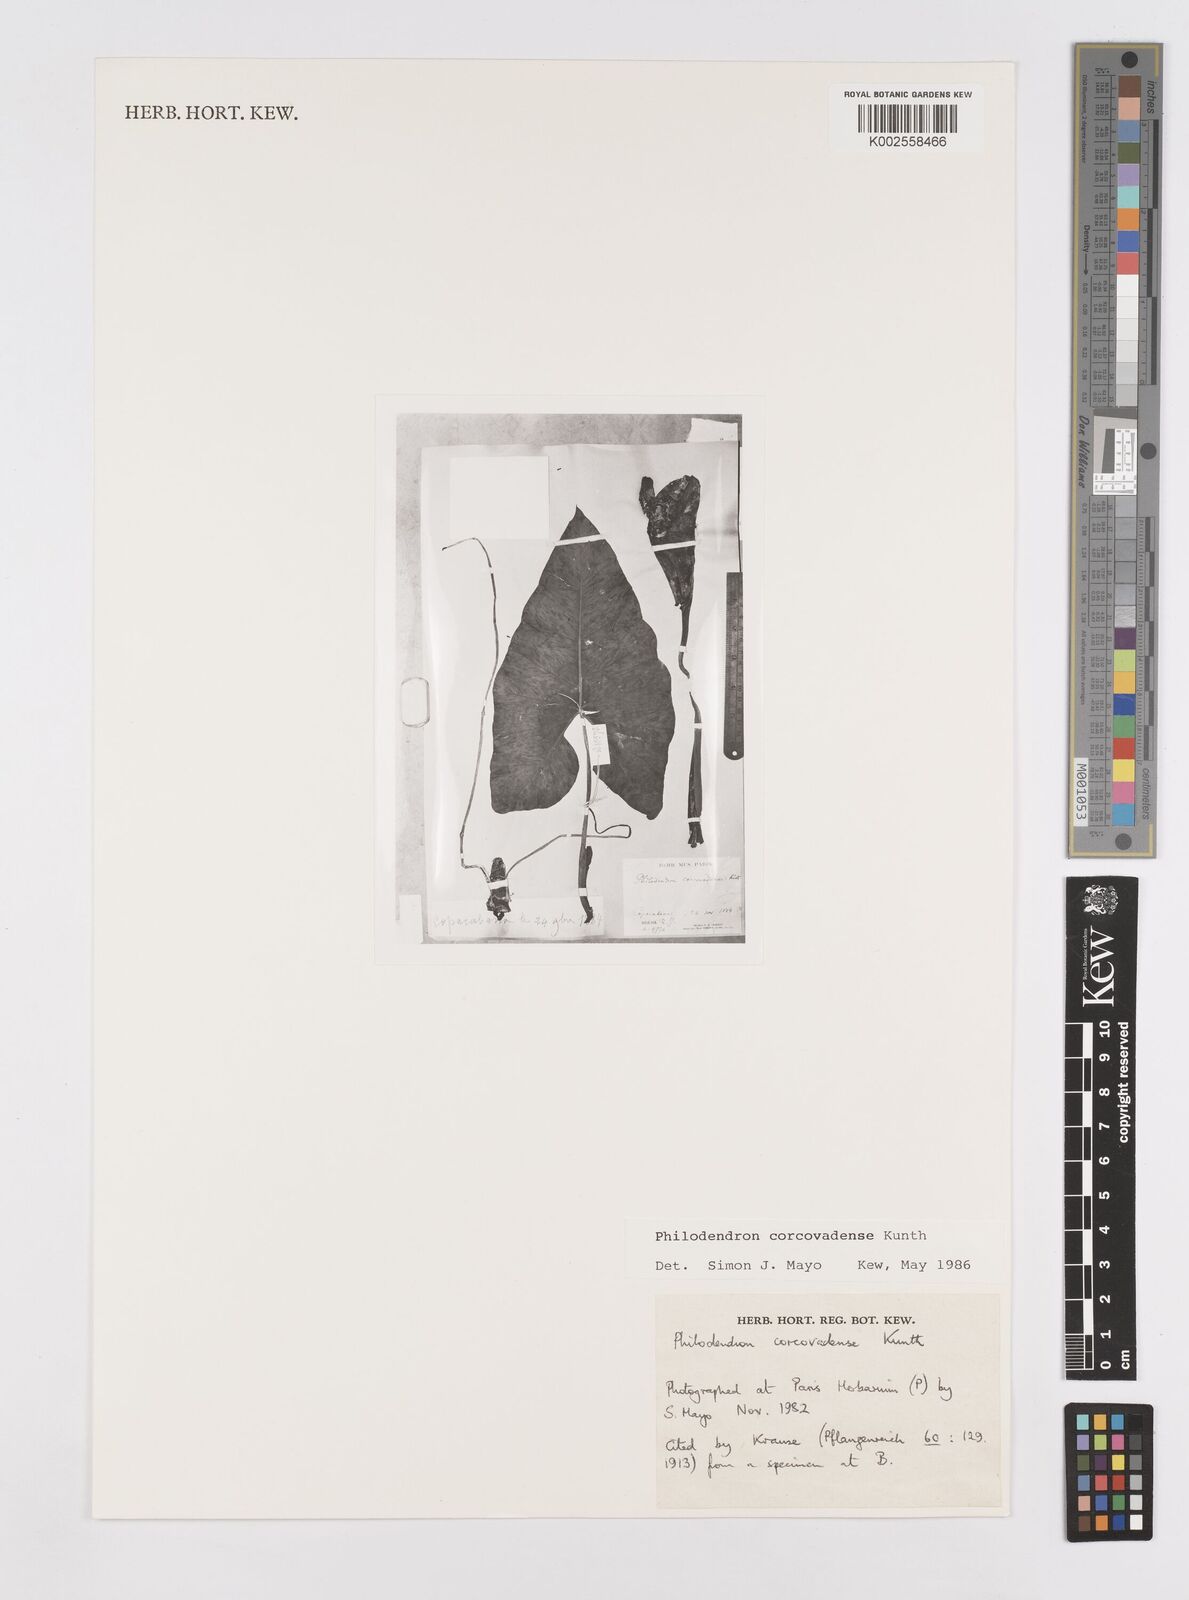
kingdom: Plantae
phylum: Tracheophyta
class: Liliopsida
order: Alismatales
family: Araceae
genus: Thaumatophyllum
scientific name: Thaumatophyllum corcovadense
